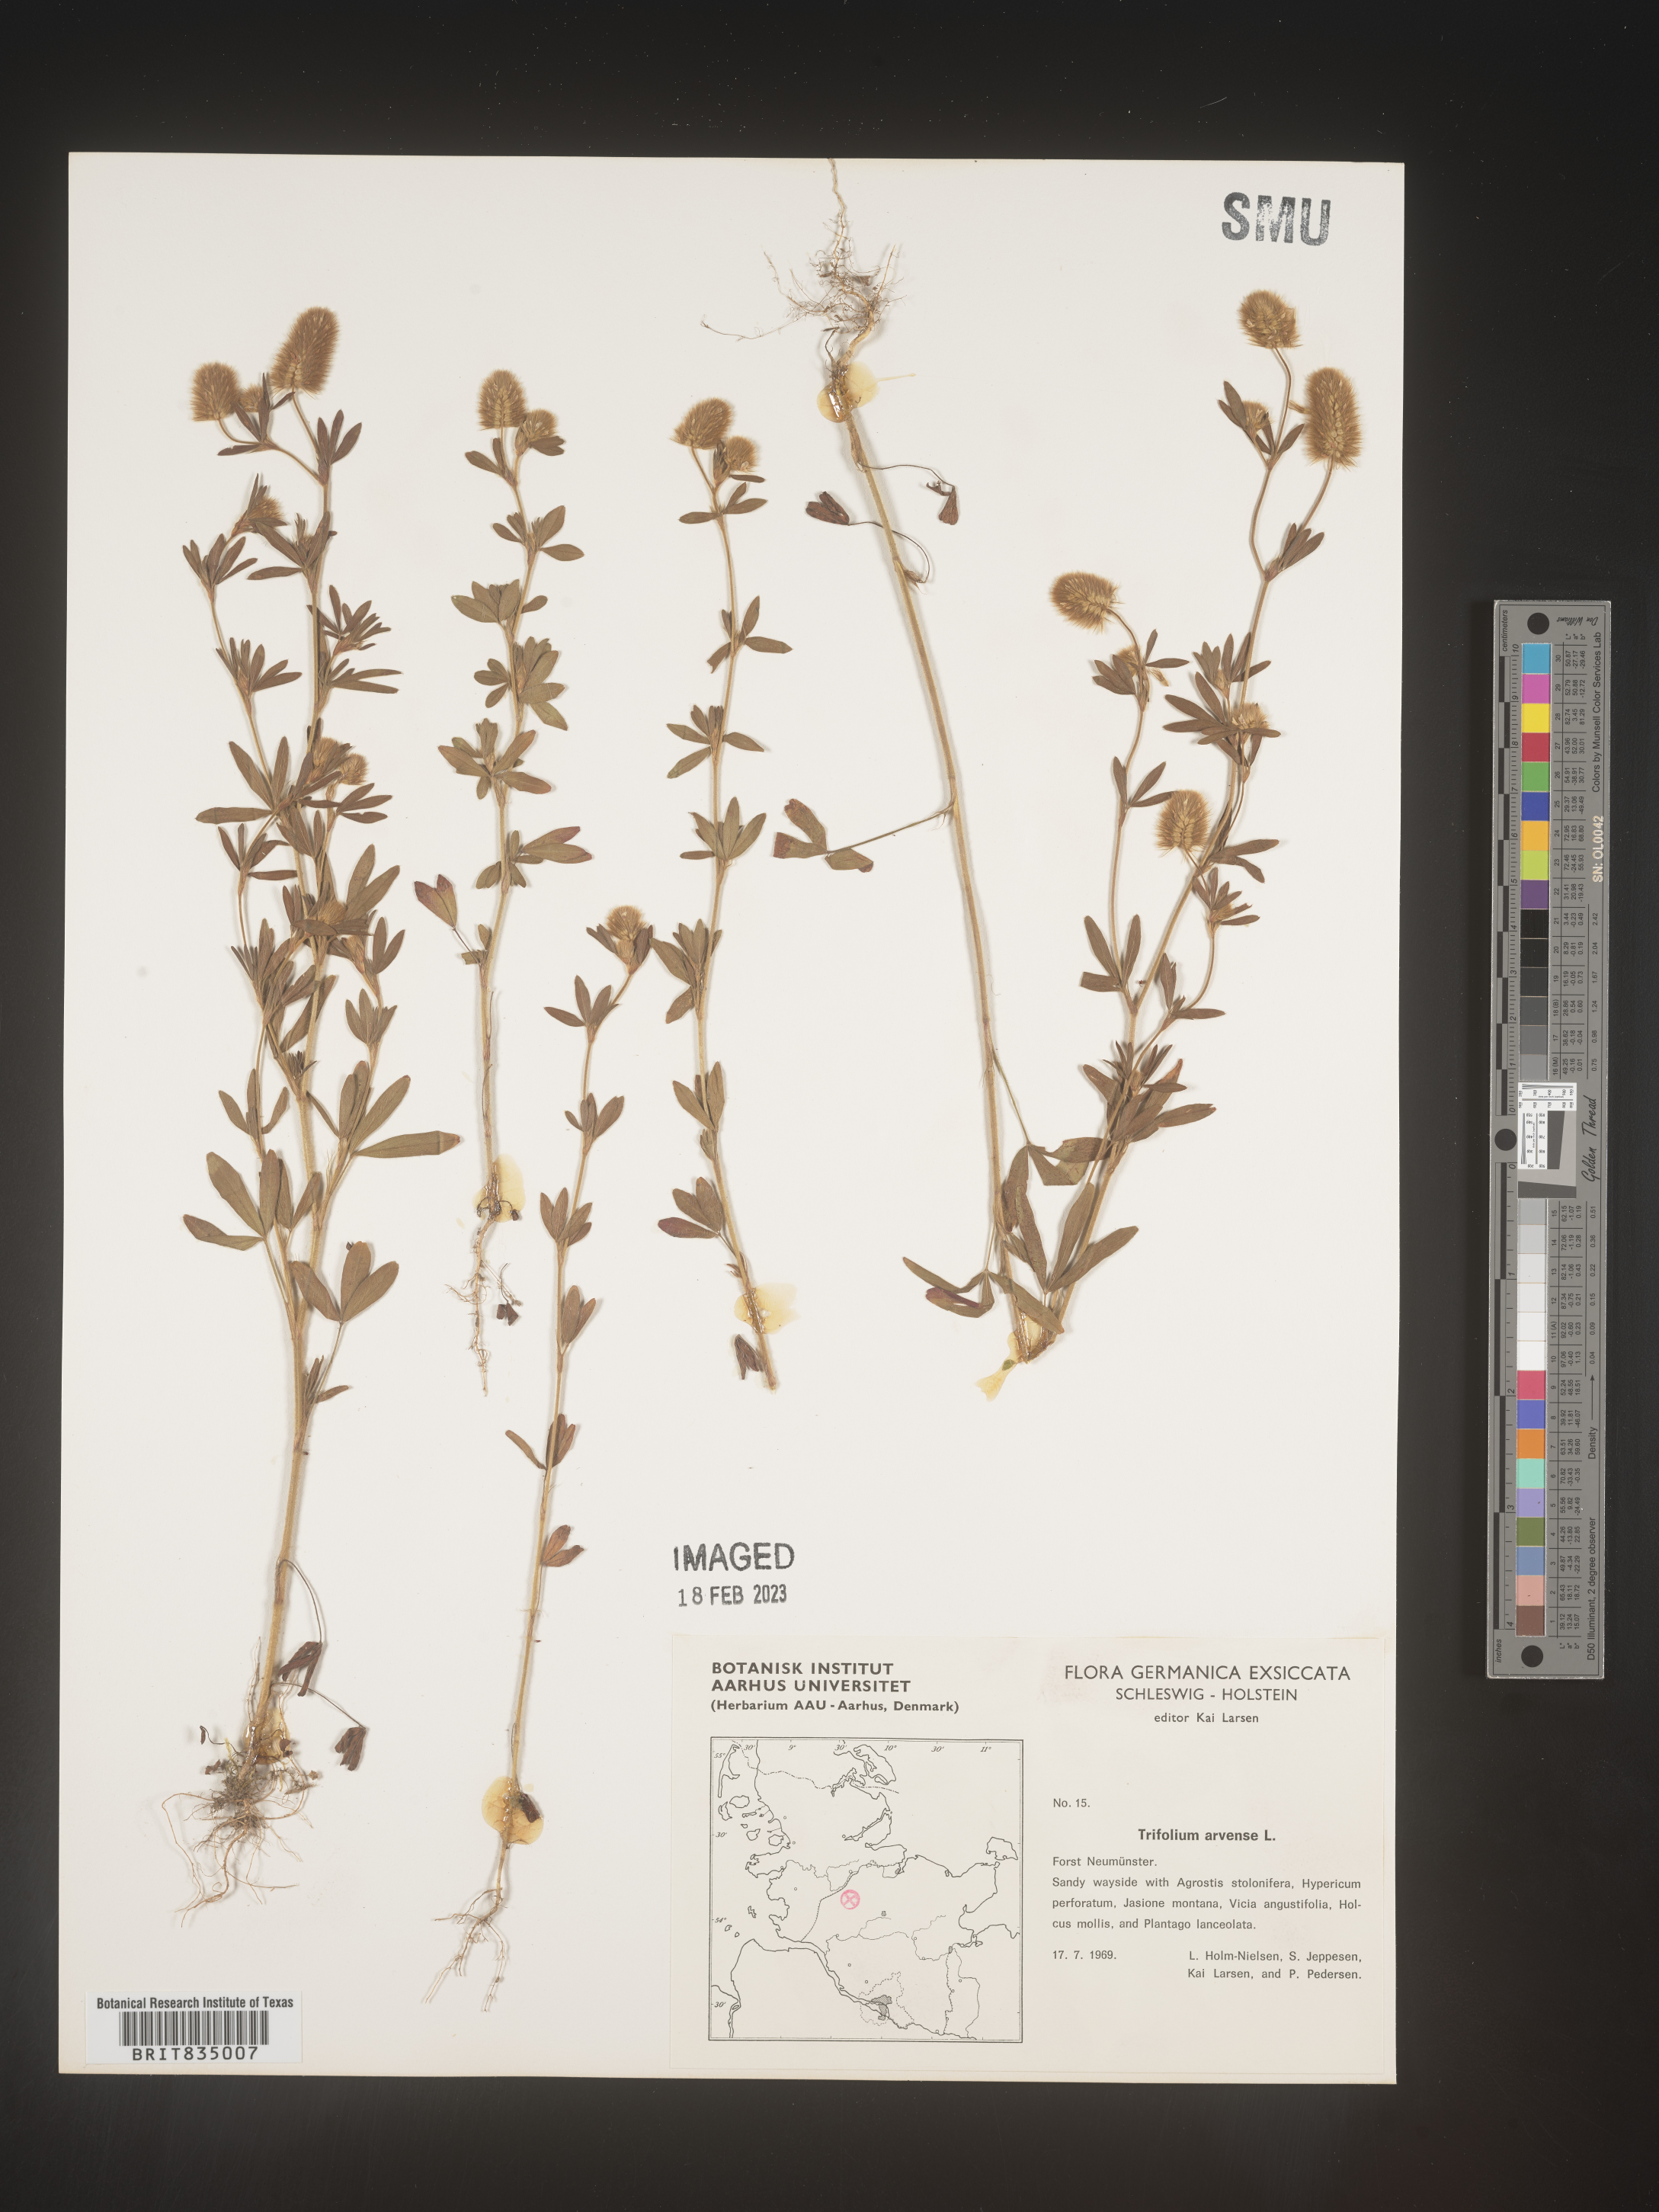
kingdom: Plantae
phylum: Tracheophyta
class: Magnoliopsida
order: Fabales
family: Fabaceae
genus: Trifolium
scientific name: Trifolium
